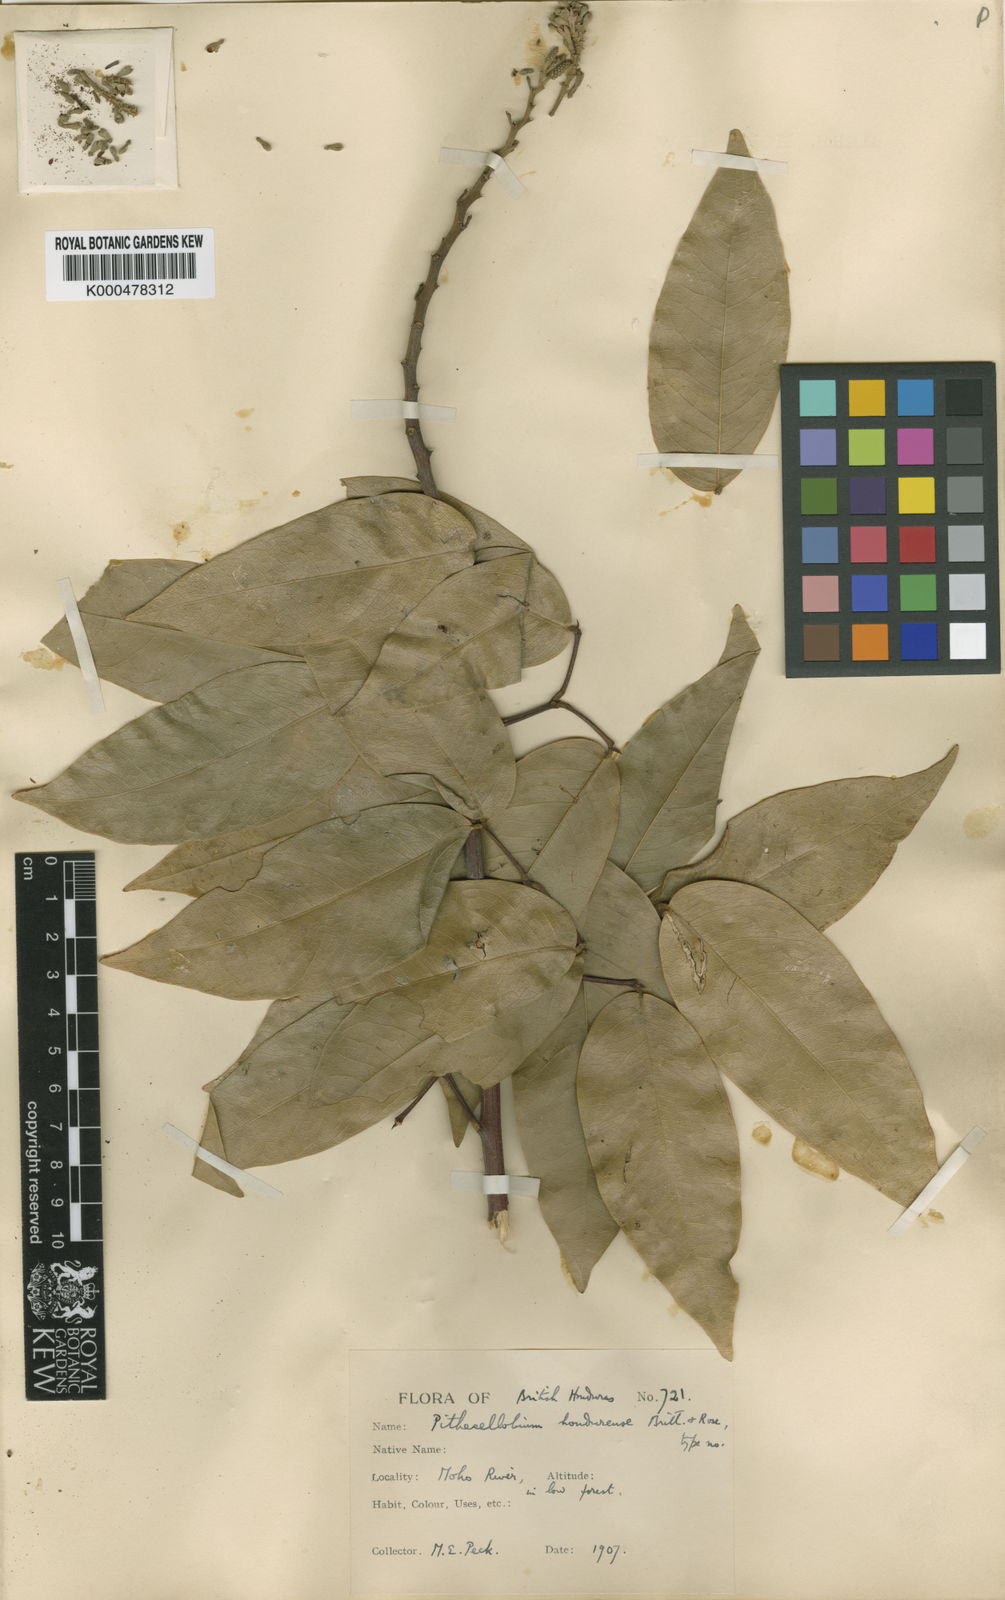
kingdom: Plantae
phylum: Tracheophyta
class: Magnoliopsida
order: Fabales
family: Fabaceae
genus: Pithecellobium
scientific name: Pithecellobium hymenaeifolium
